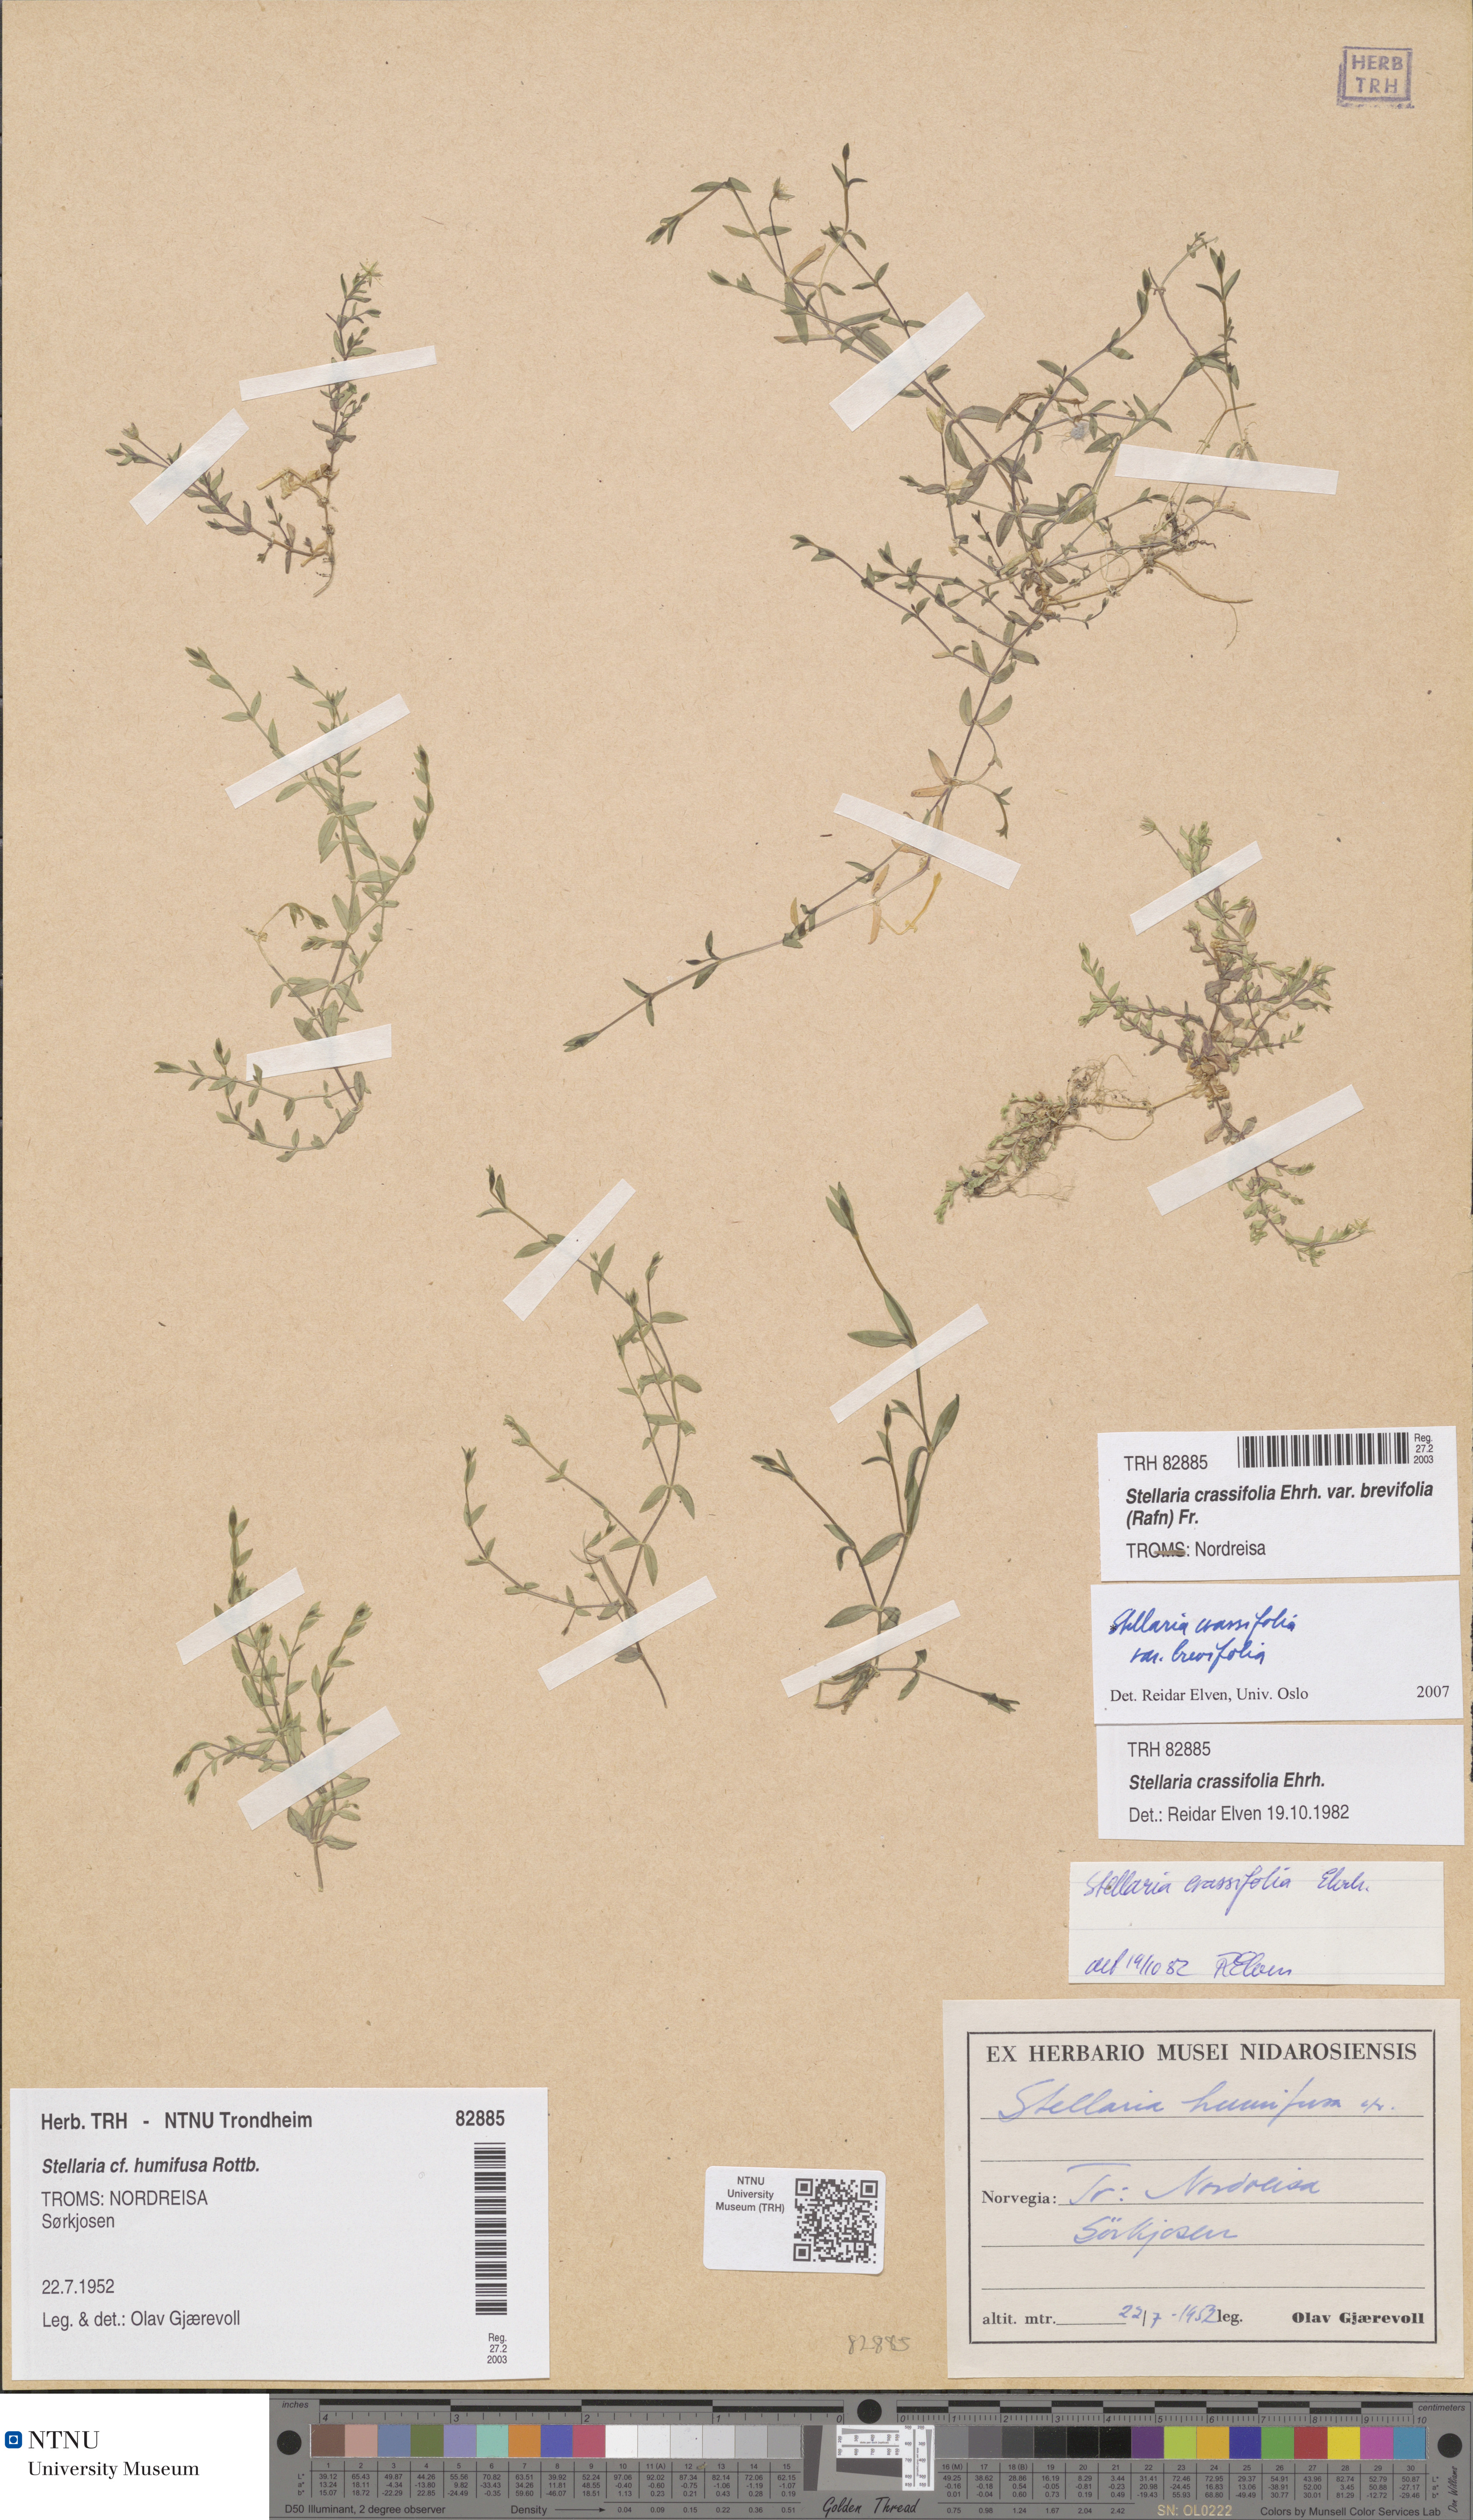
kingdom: Plantae
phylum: Tracheophyta
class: Magnoliopsida
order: Caryophyllales
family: Caryophyllaceae
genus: Stellaria
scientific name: Stellaria crassifolia
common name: Fleshy starwort
